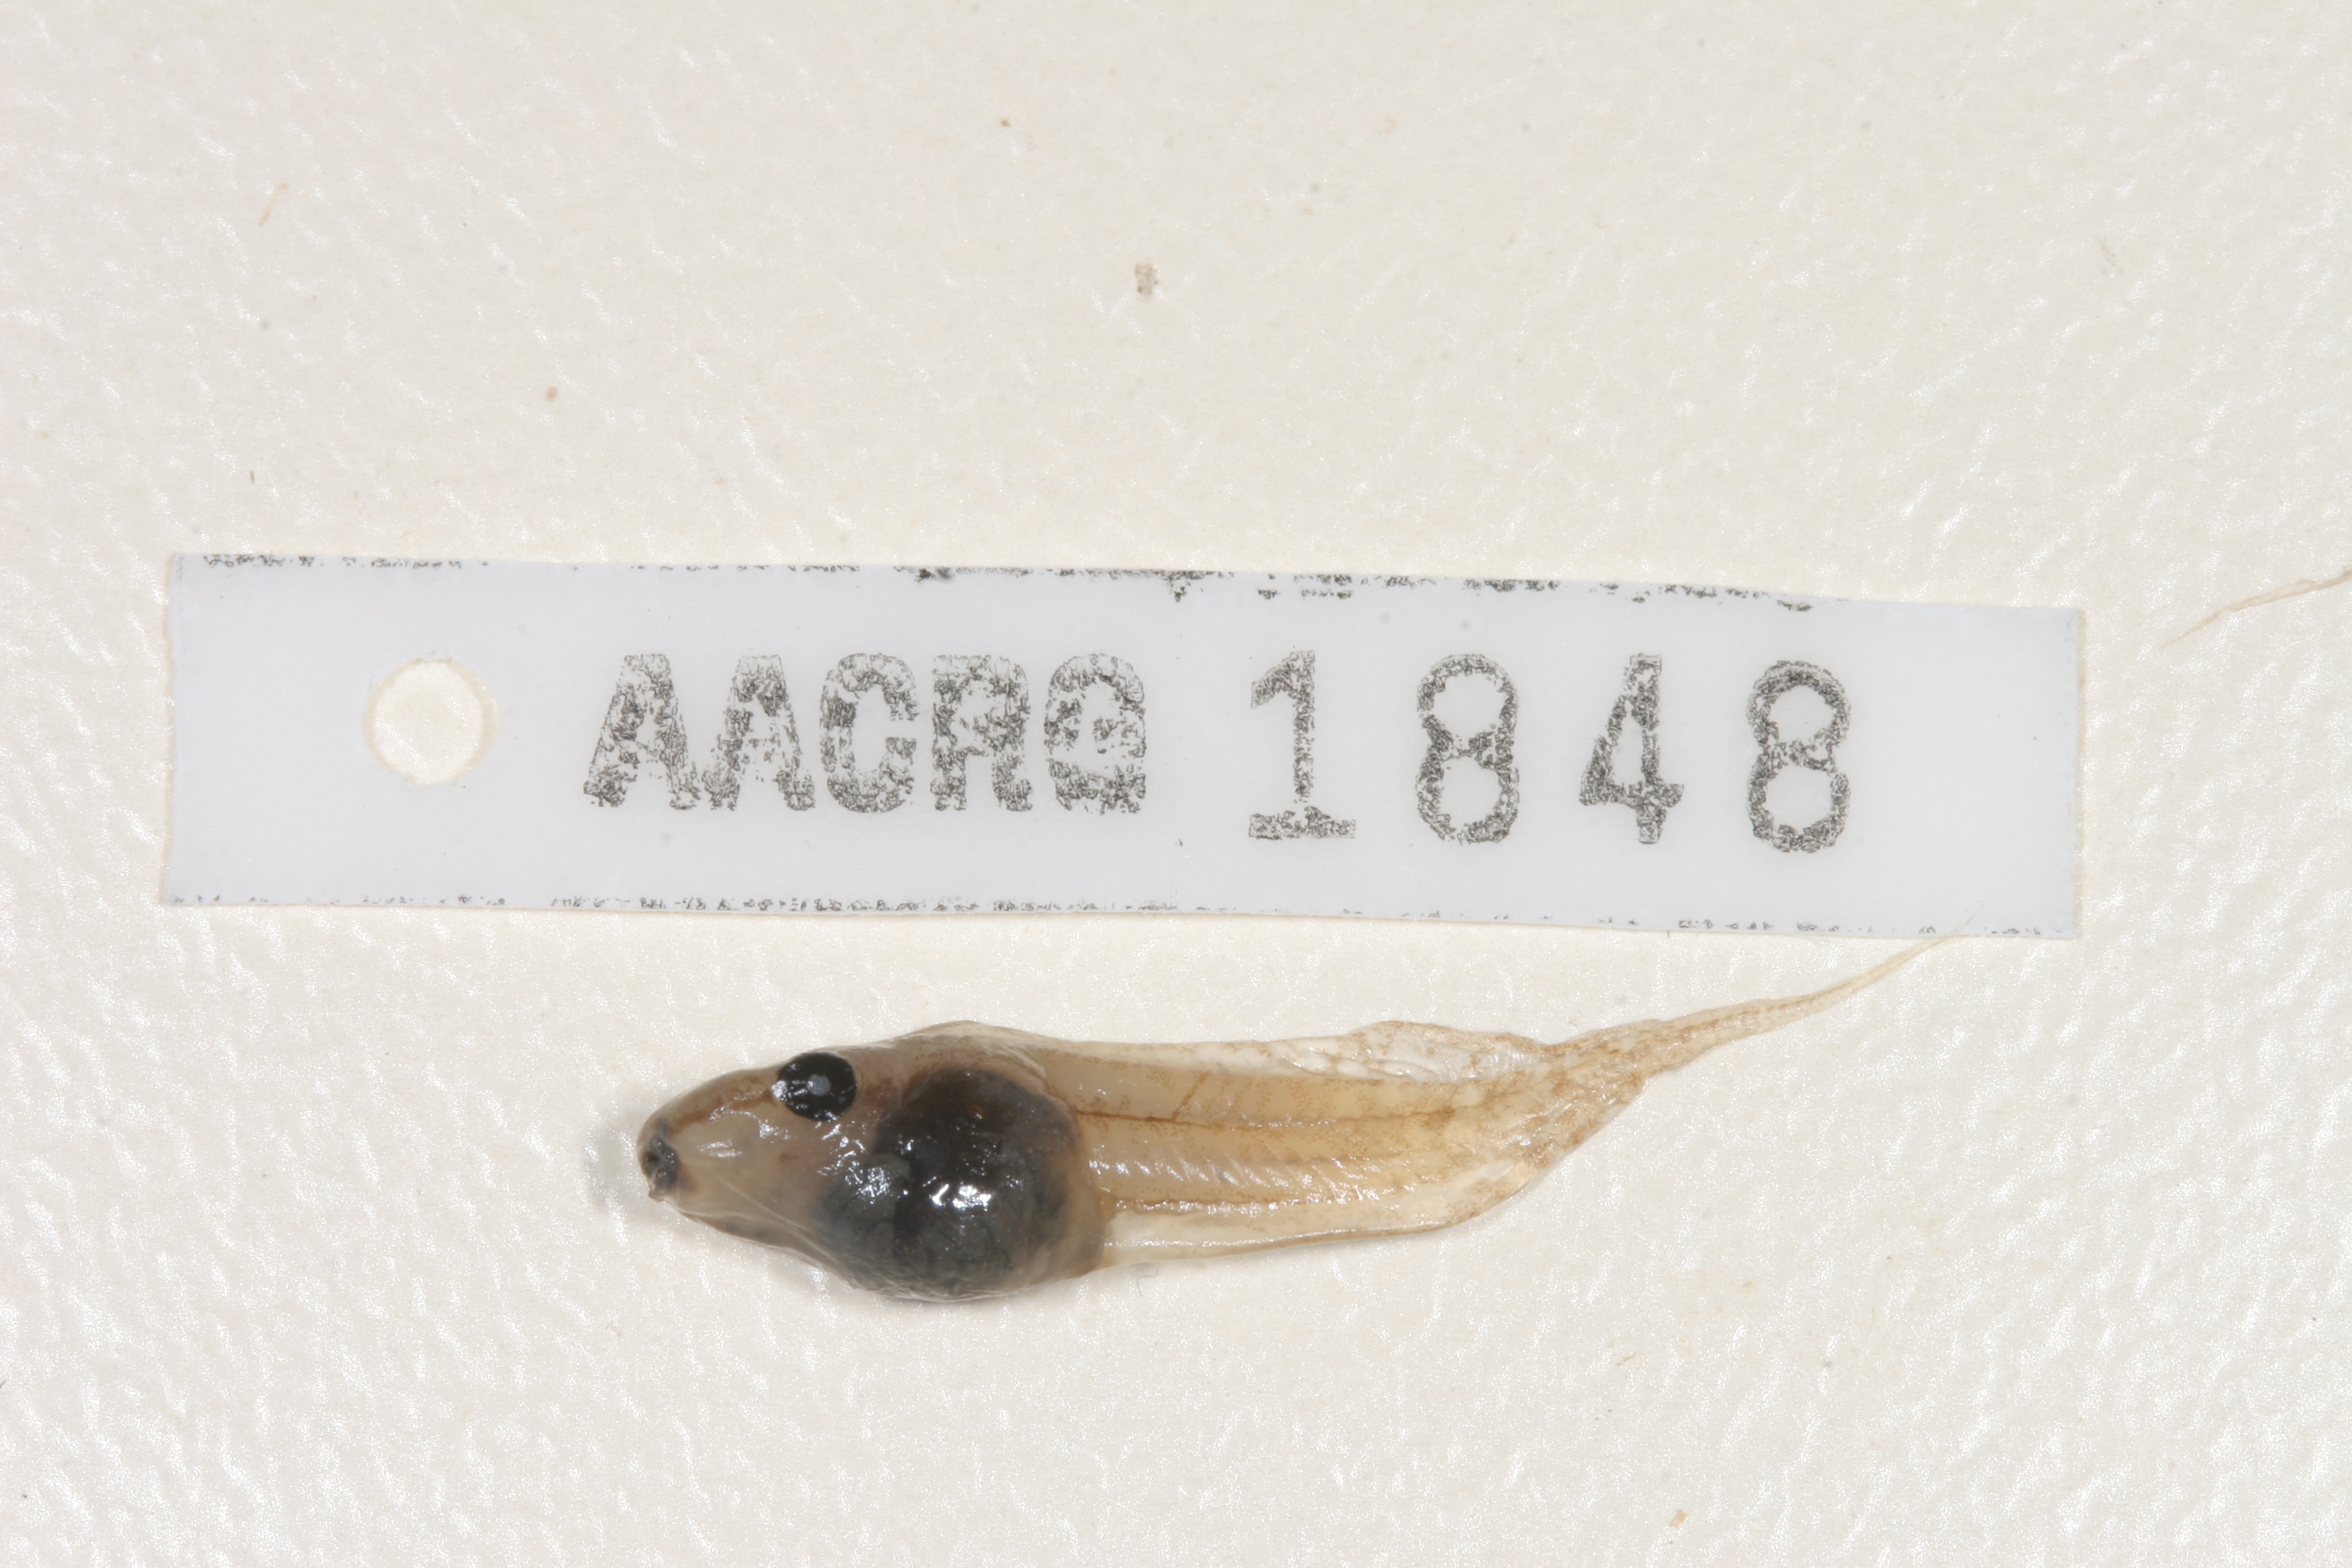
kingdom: Animalia
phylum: Chordata
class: Amphibia
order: Anura
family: Hyperoliidae
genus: Kassina
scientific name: Kassina senegalensis
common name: Senegal land frog
